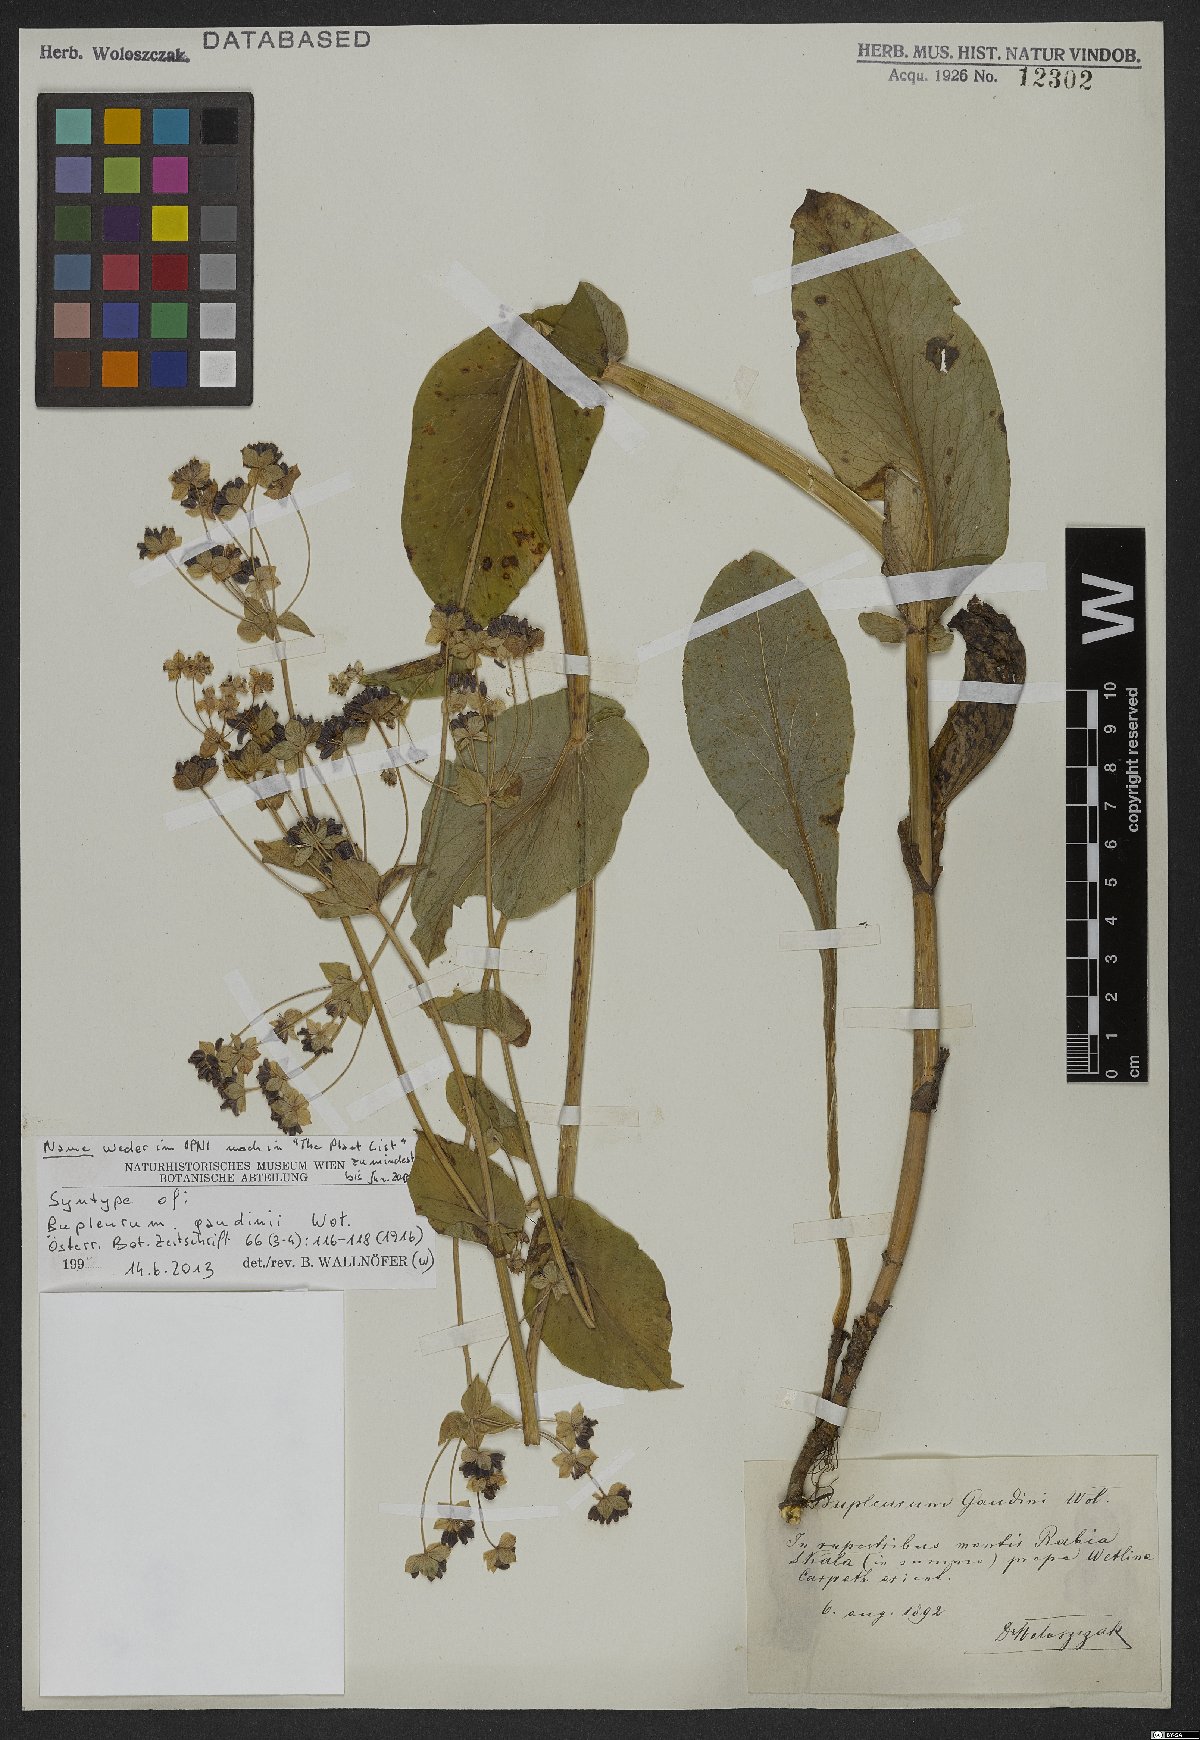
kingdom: Plantae
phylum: Tracheophyta
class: Magnoliopsida
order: Apiales
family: Apiaceae
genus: Bupleurum
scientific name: Bupleurum subovatum
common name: False thorow-wax
